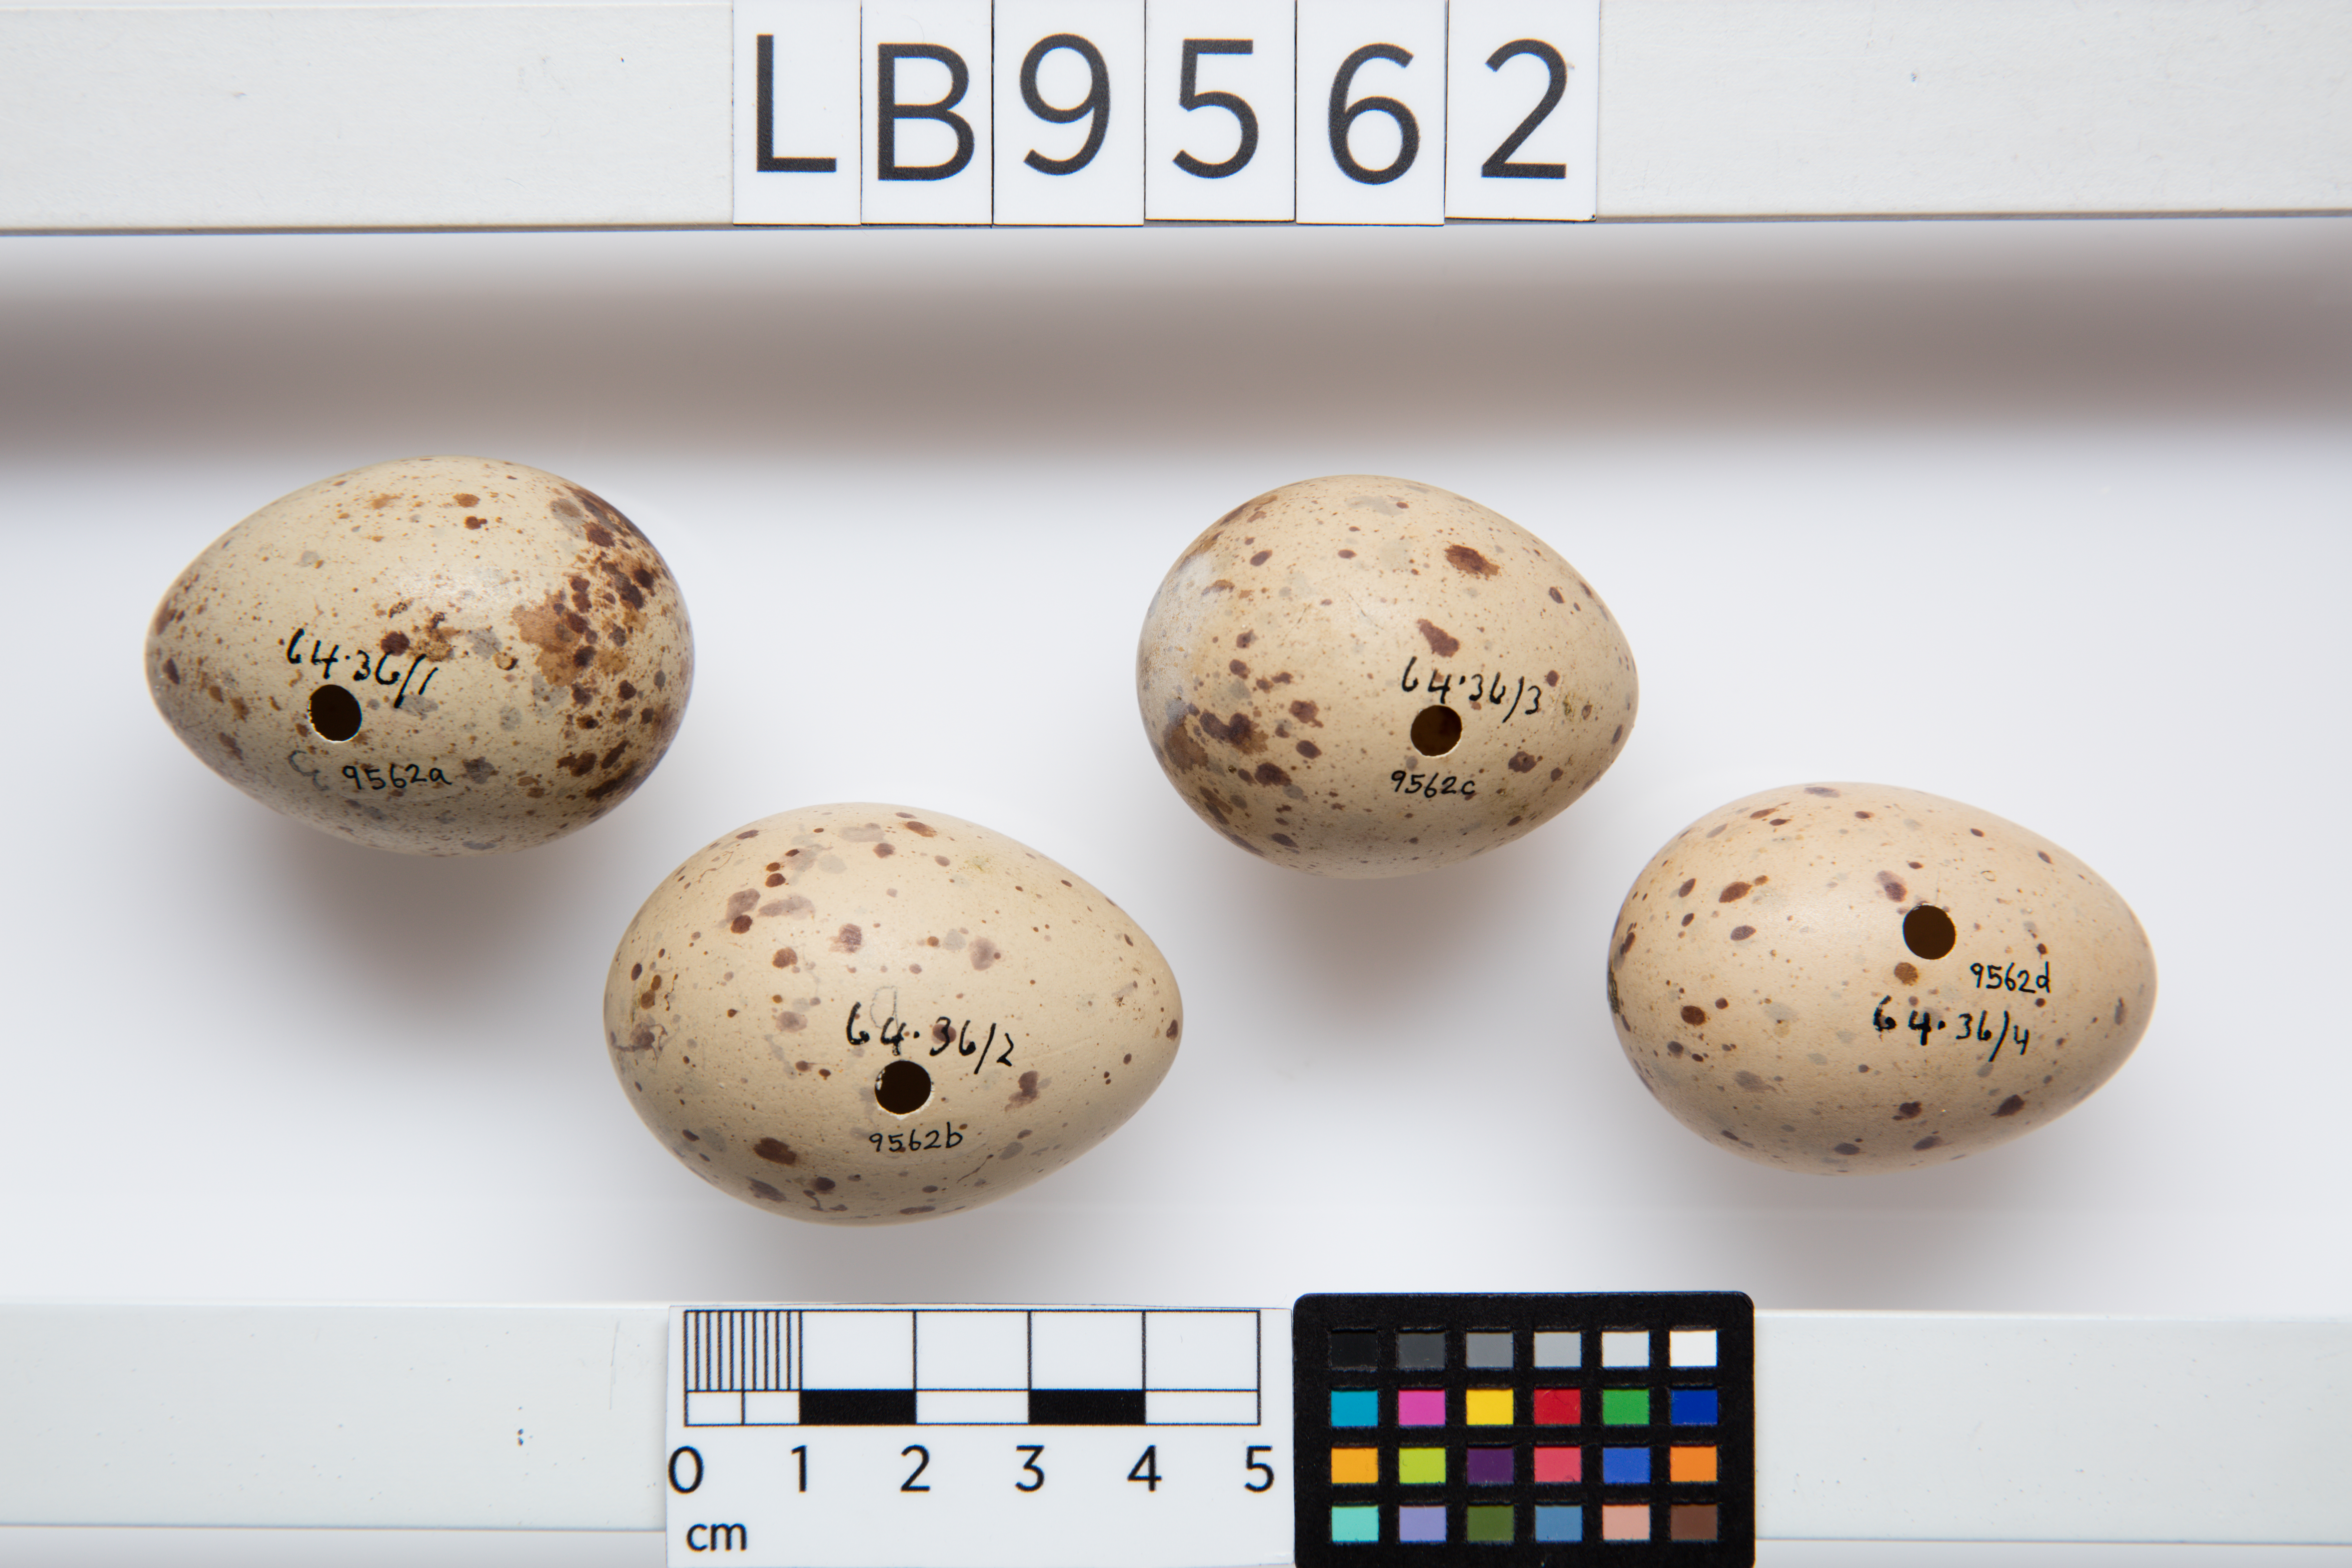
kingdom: Animalia
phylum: Chordata
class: Aves
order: Gruiformes
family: Rallidae
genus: Porphyrio
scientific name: Porphyrio melanotus
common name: Australasian swamphen
